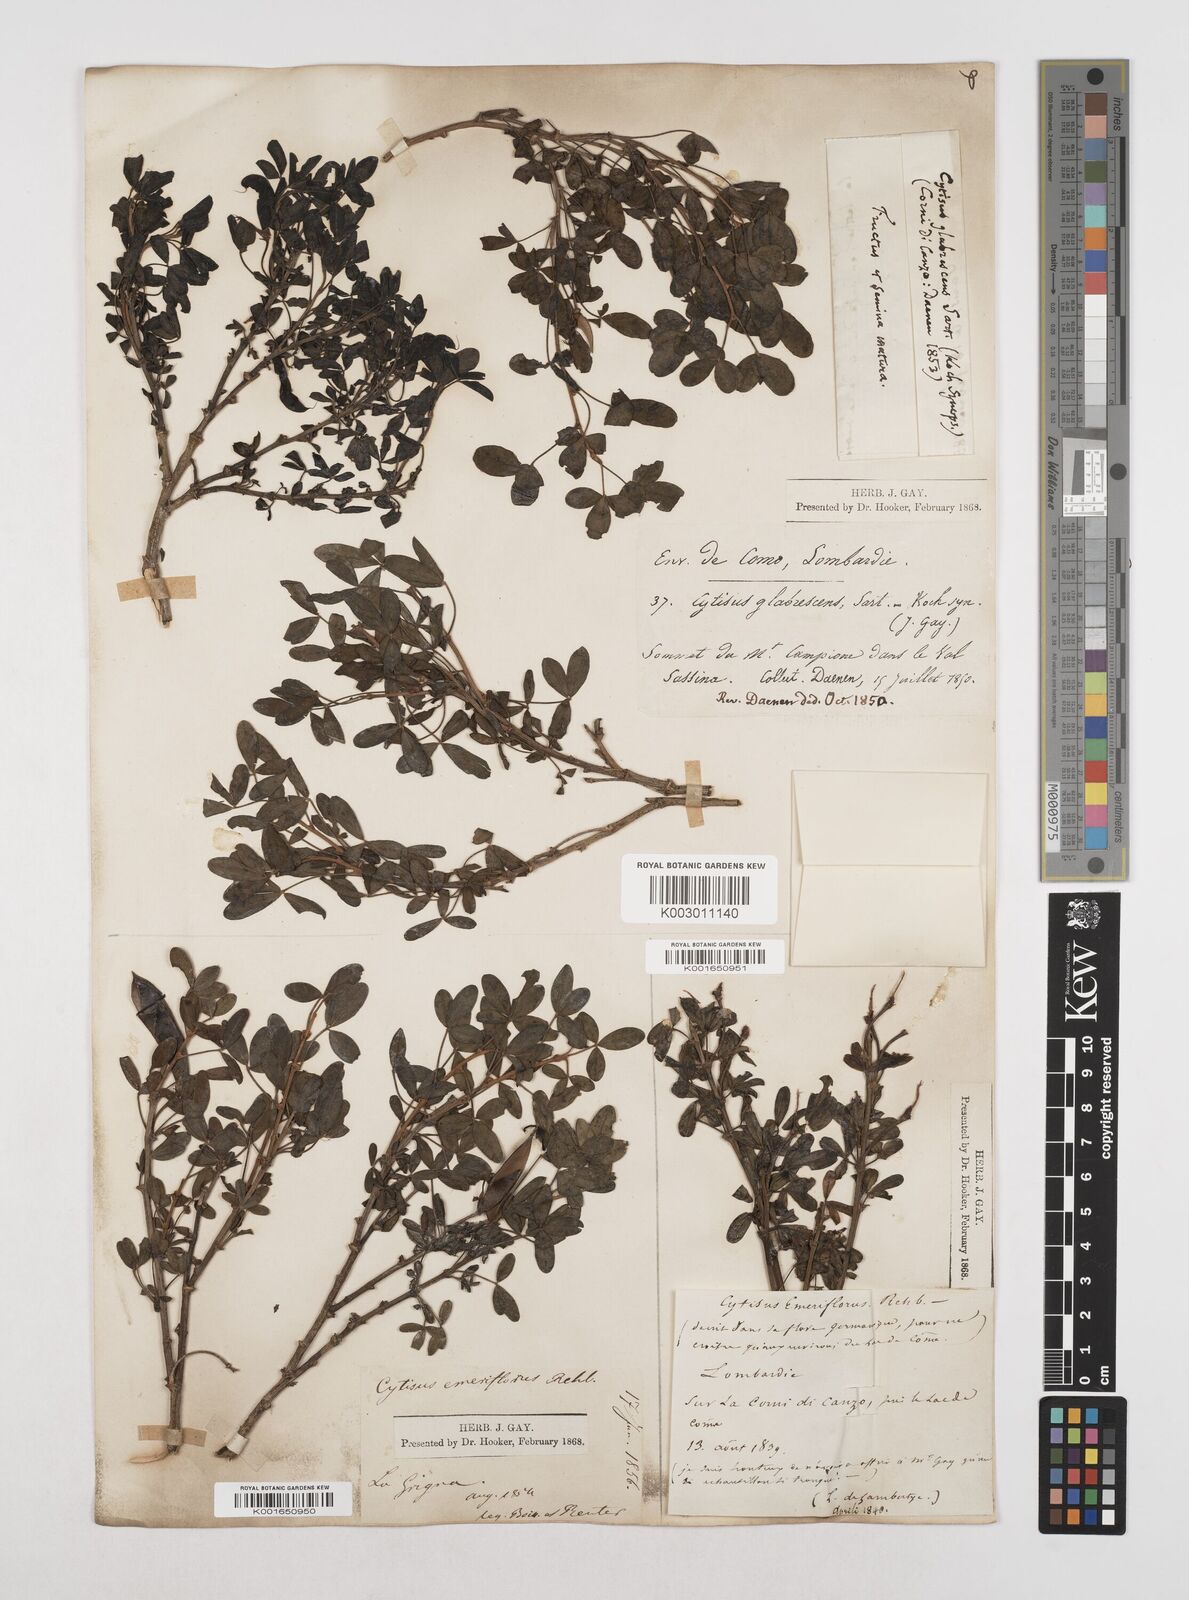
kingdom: Plantae
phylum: Tracheophyta
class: Magnoliopsida
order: Fabales
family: Fabaceae
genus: Cytisus
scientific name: Cytisus emeriflorus
